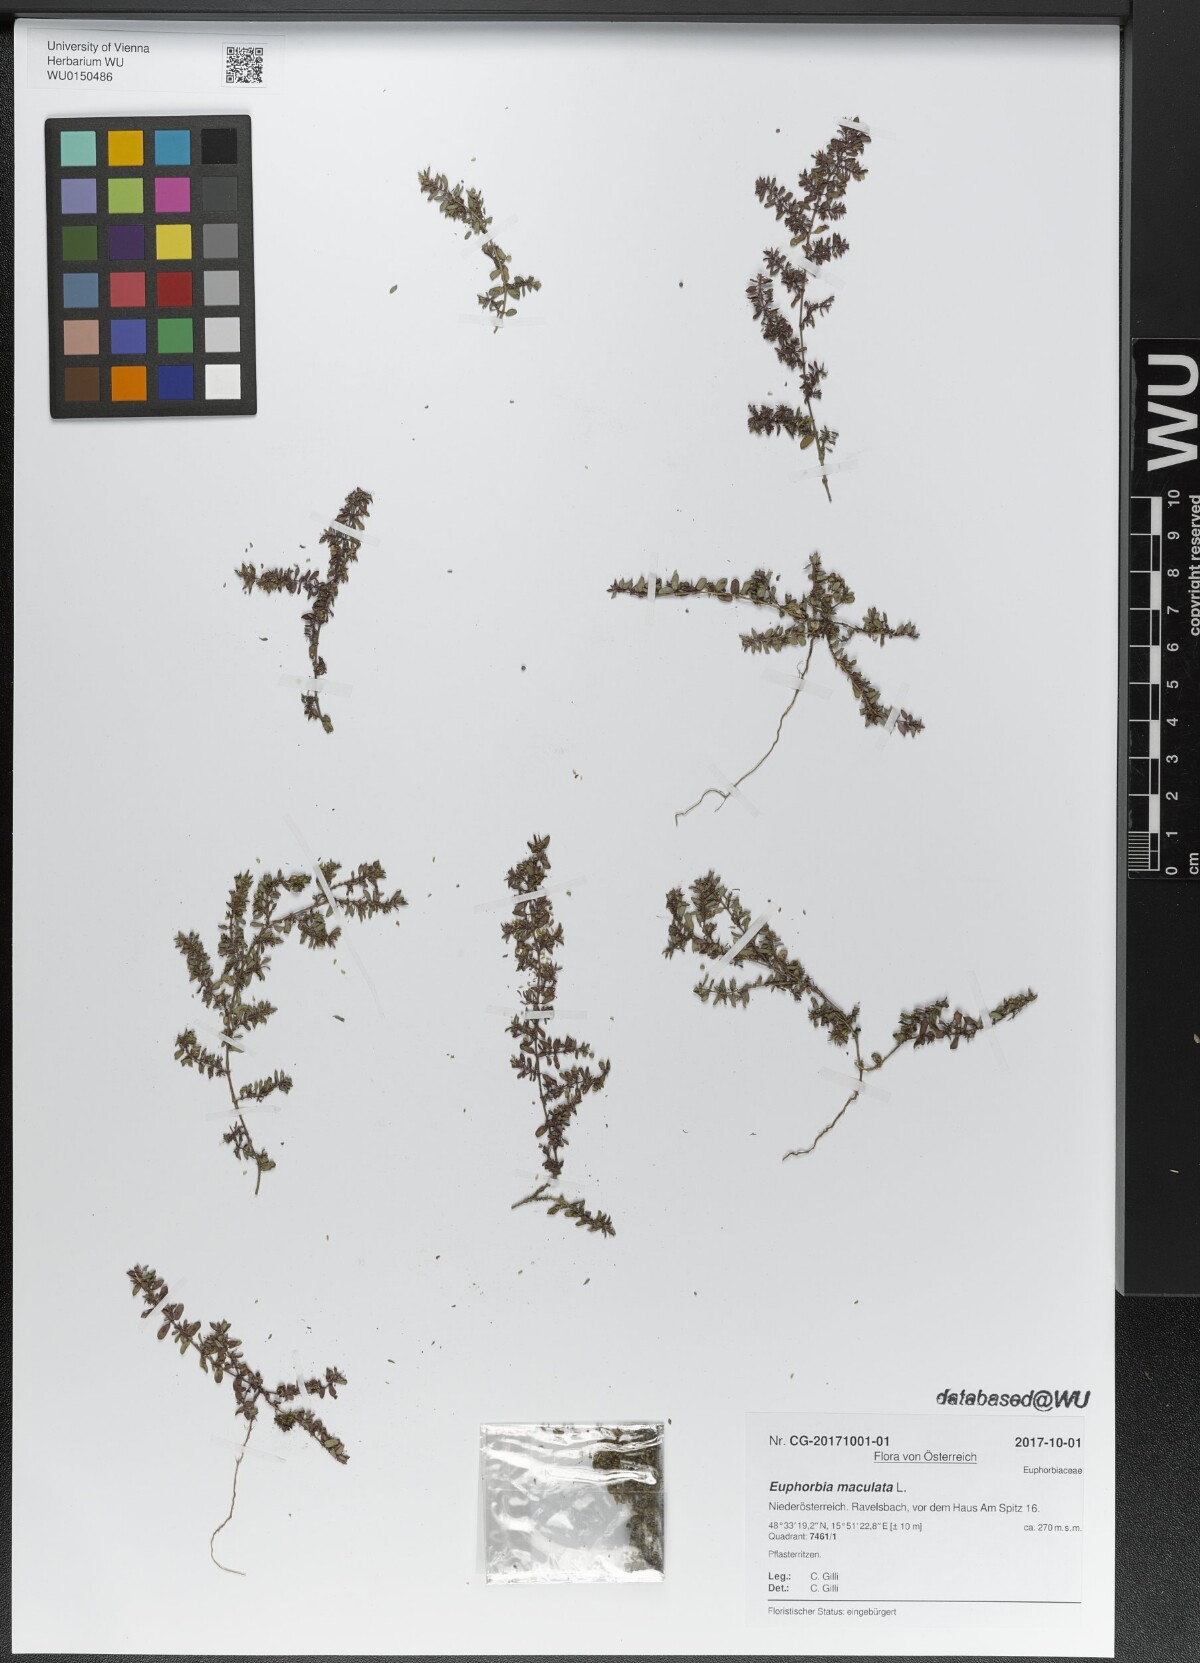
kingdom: Plantae
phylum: Tracheophyta
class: Magnoliopsida
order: Malpighiales
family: Euphorbiaceae
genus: Euphorbia
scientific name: Euphorbia maculata
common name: Spotted spurge
